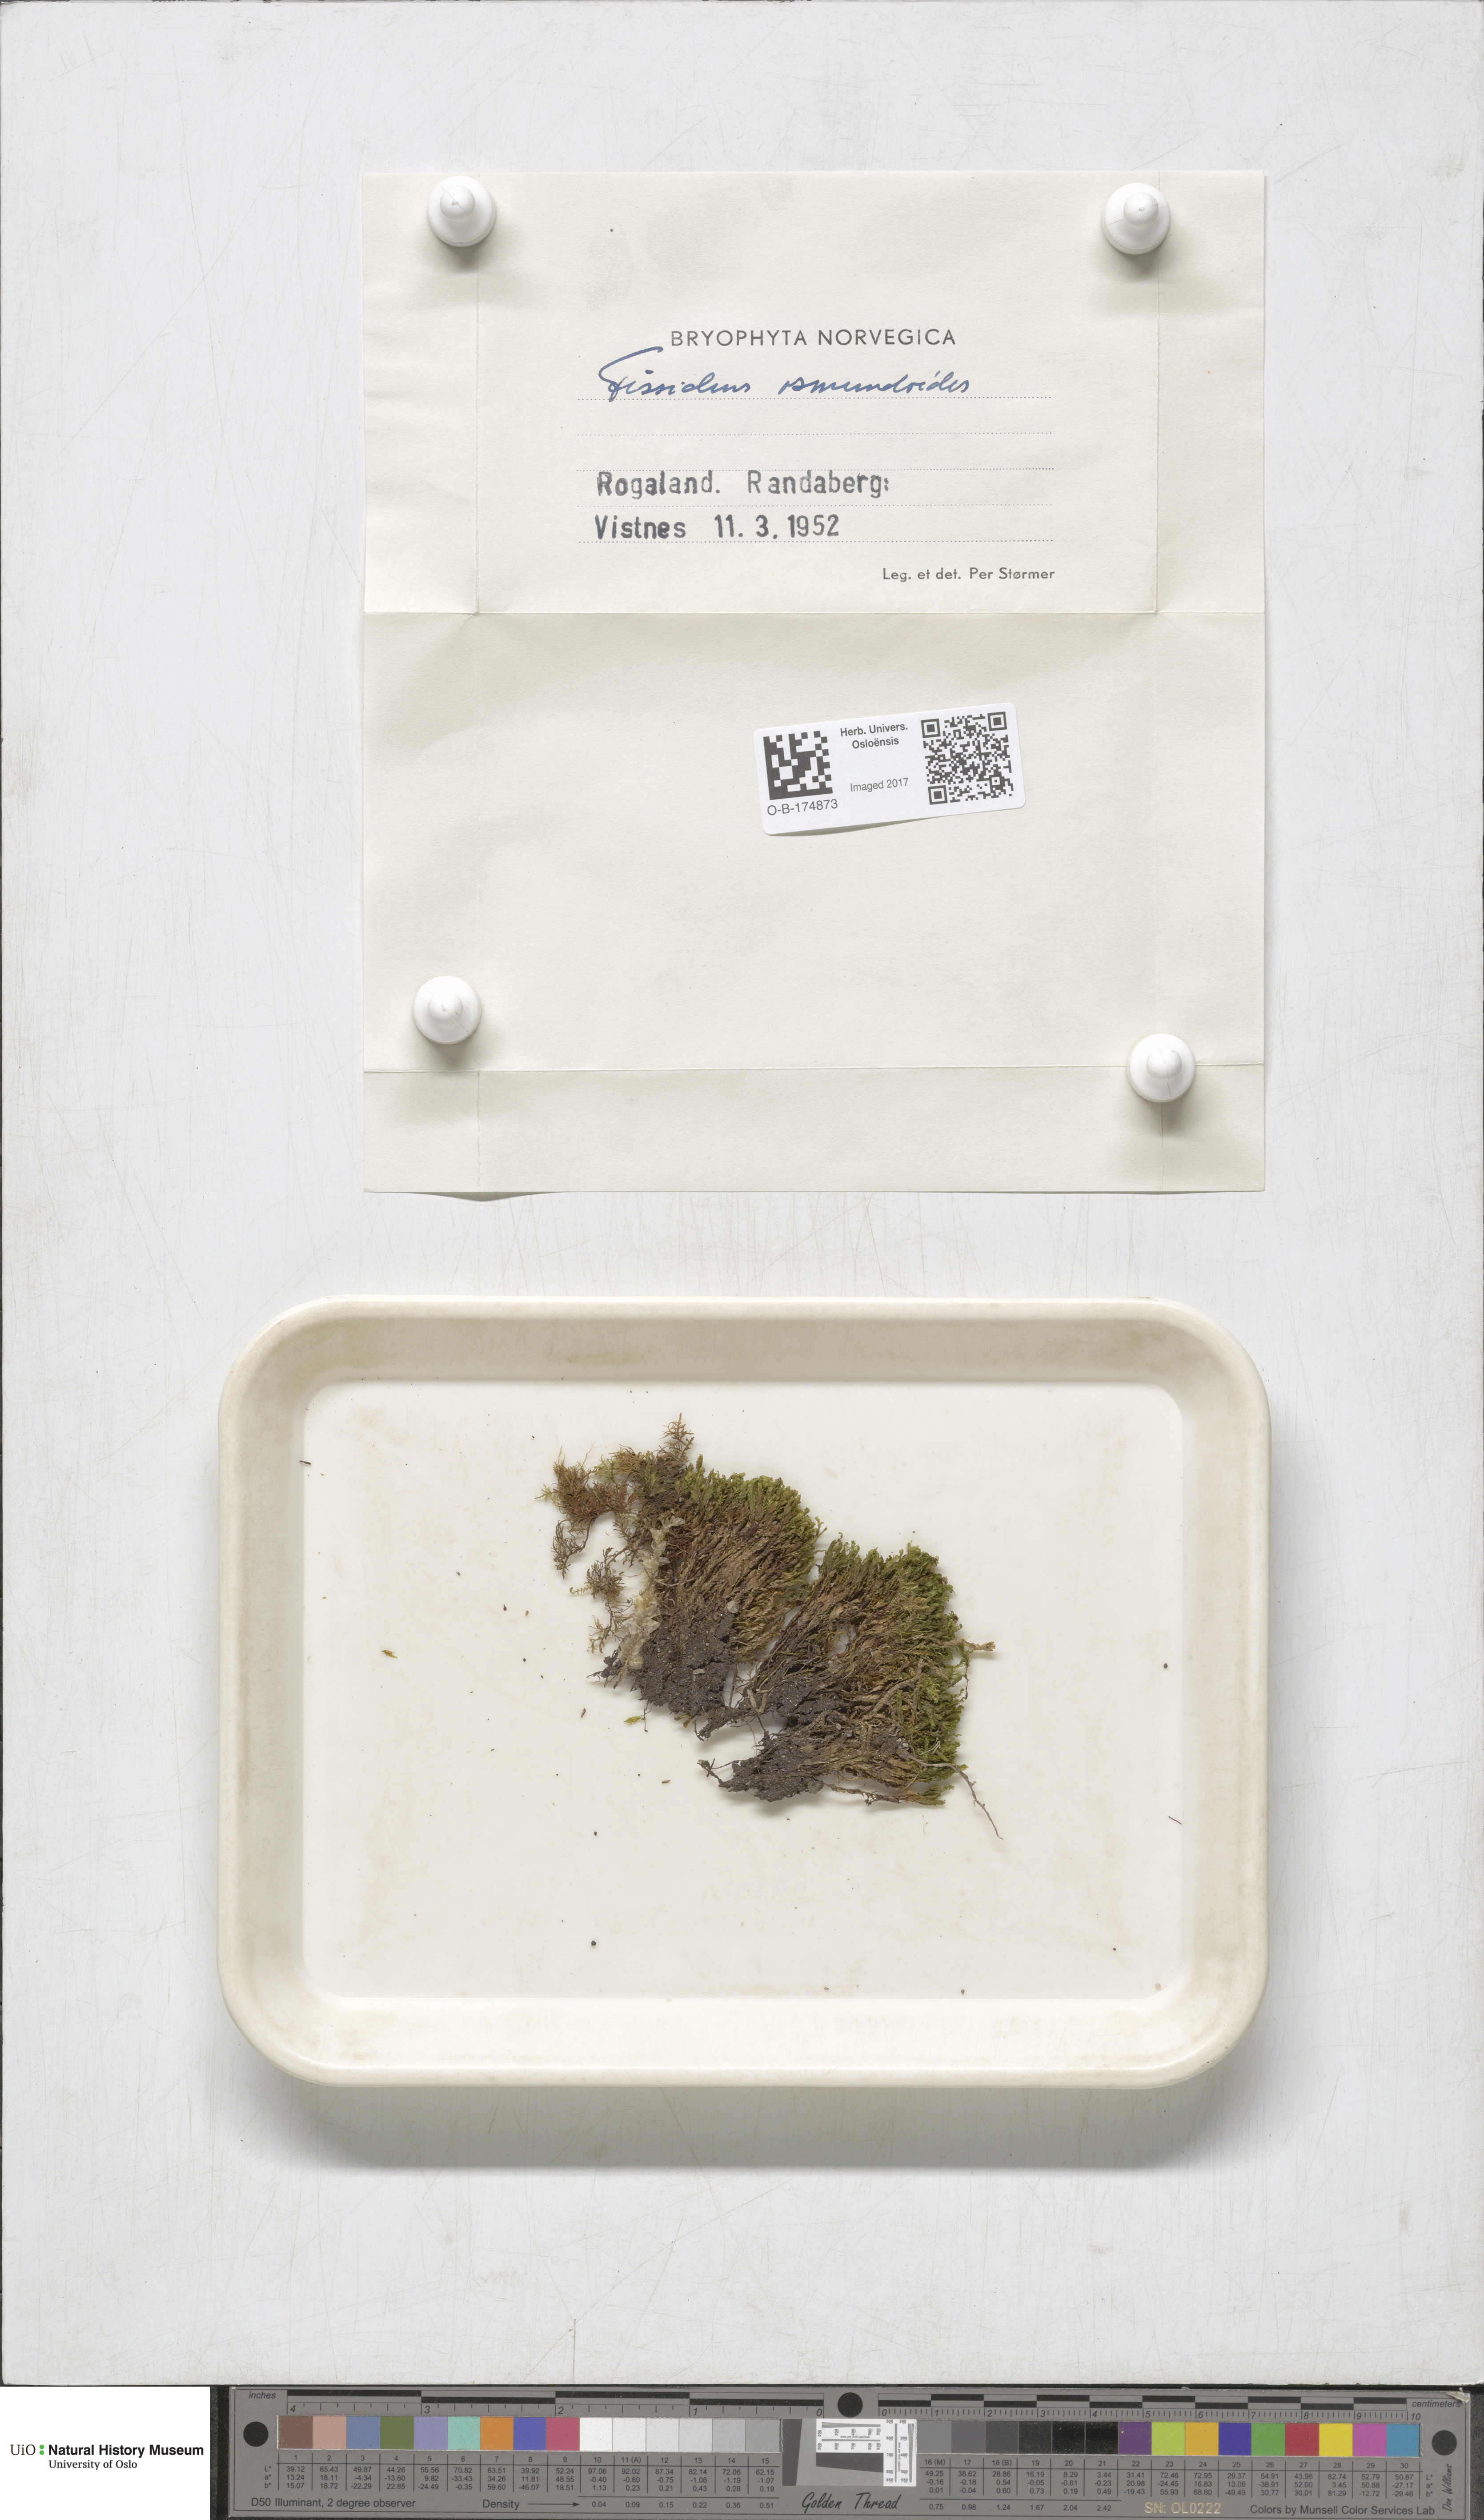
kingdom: Plantae
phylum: Bryophyta
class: Bryopsida
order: Dicranales
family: Fissidentaceae
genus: Fissidens
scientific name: Fissidens osmundoides
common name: Purple-stalked pocket moss
